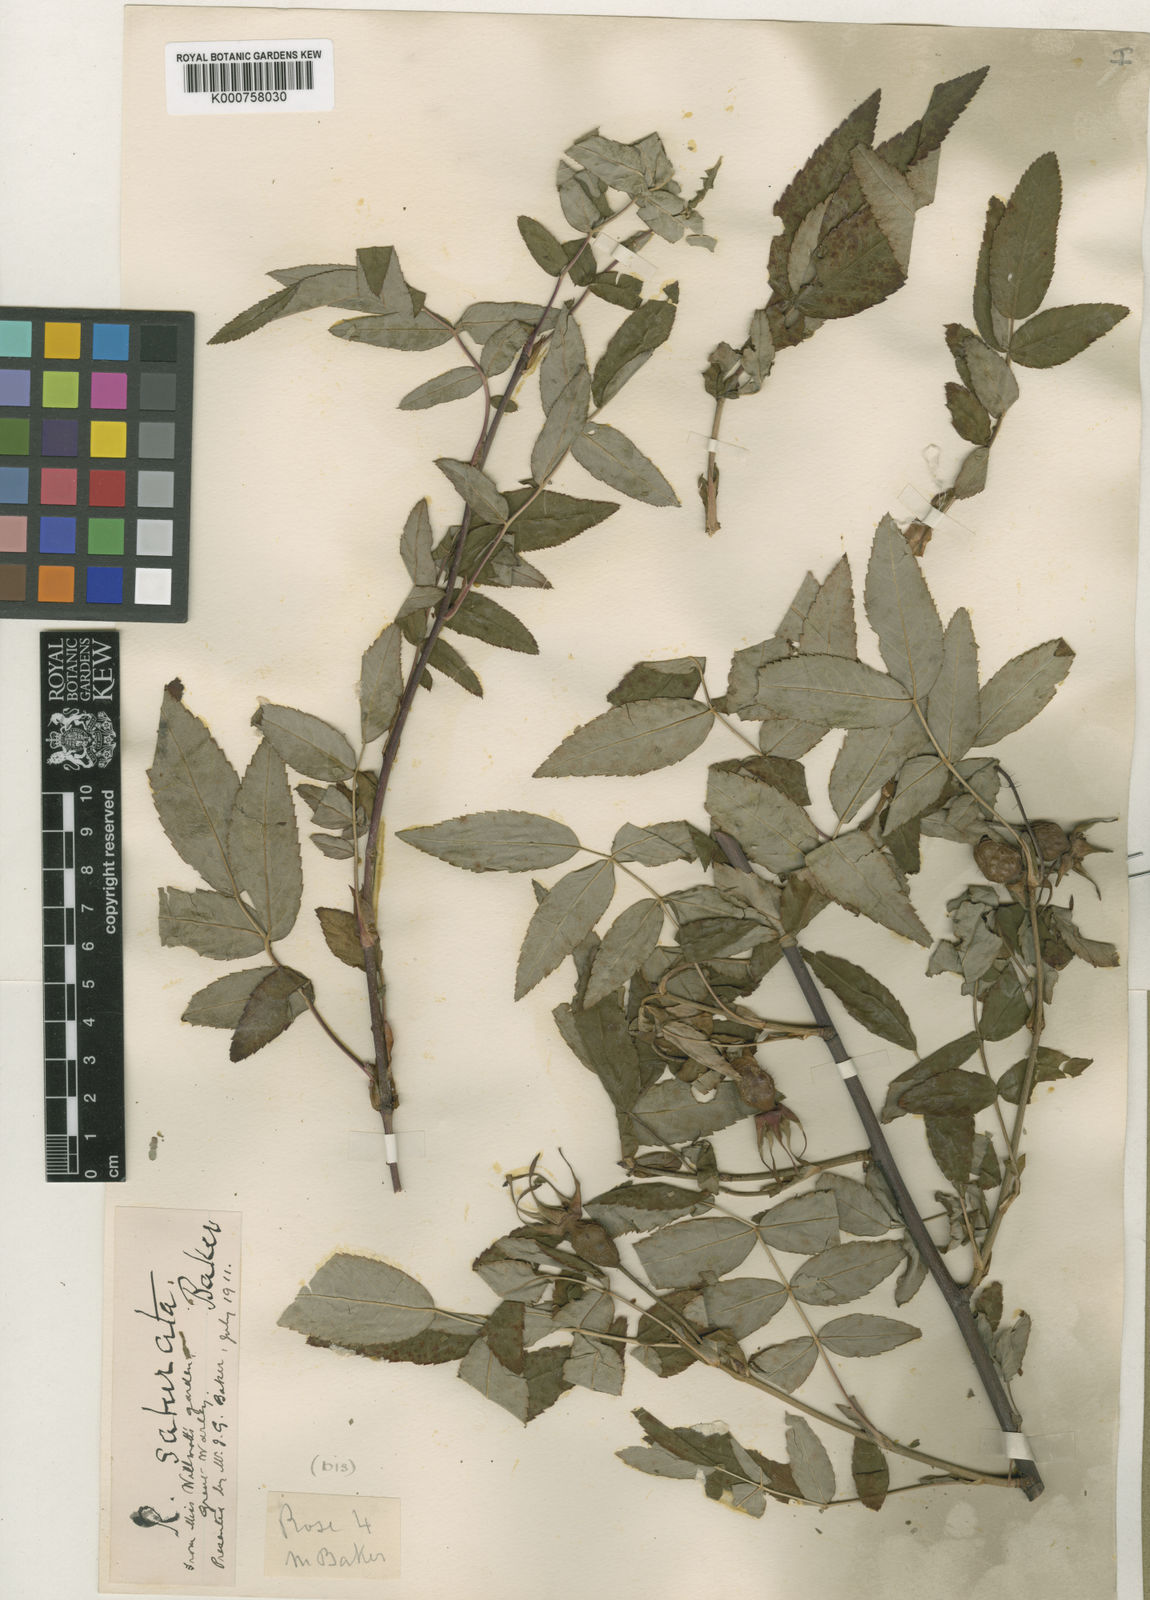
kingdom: Plantae
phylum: Tracheophyta
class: Magnoliopsida
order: Rosales
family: Rosaceae
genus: Rosa
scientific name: Rosa saturata
